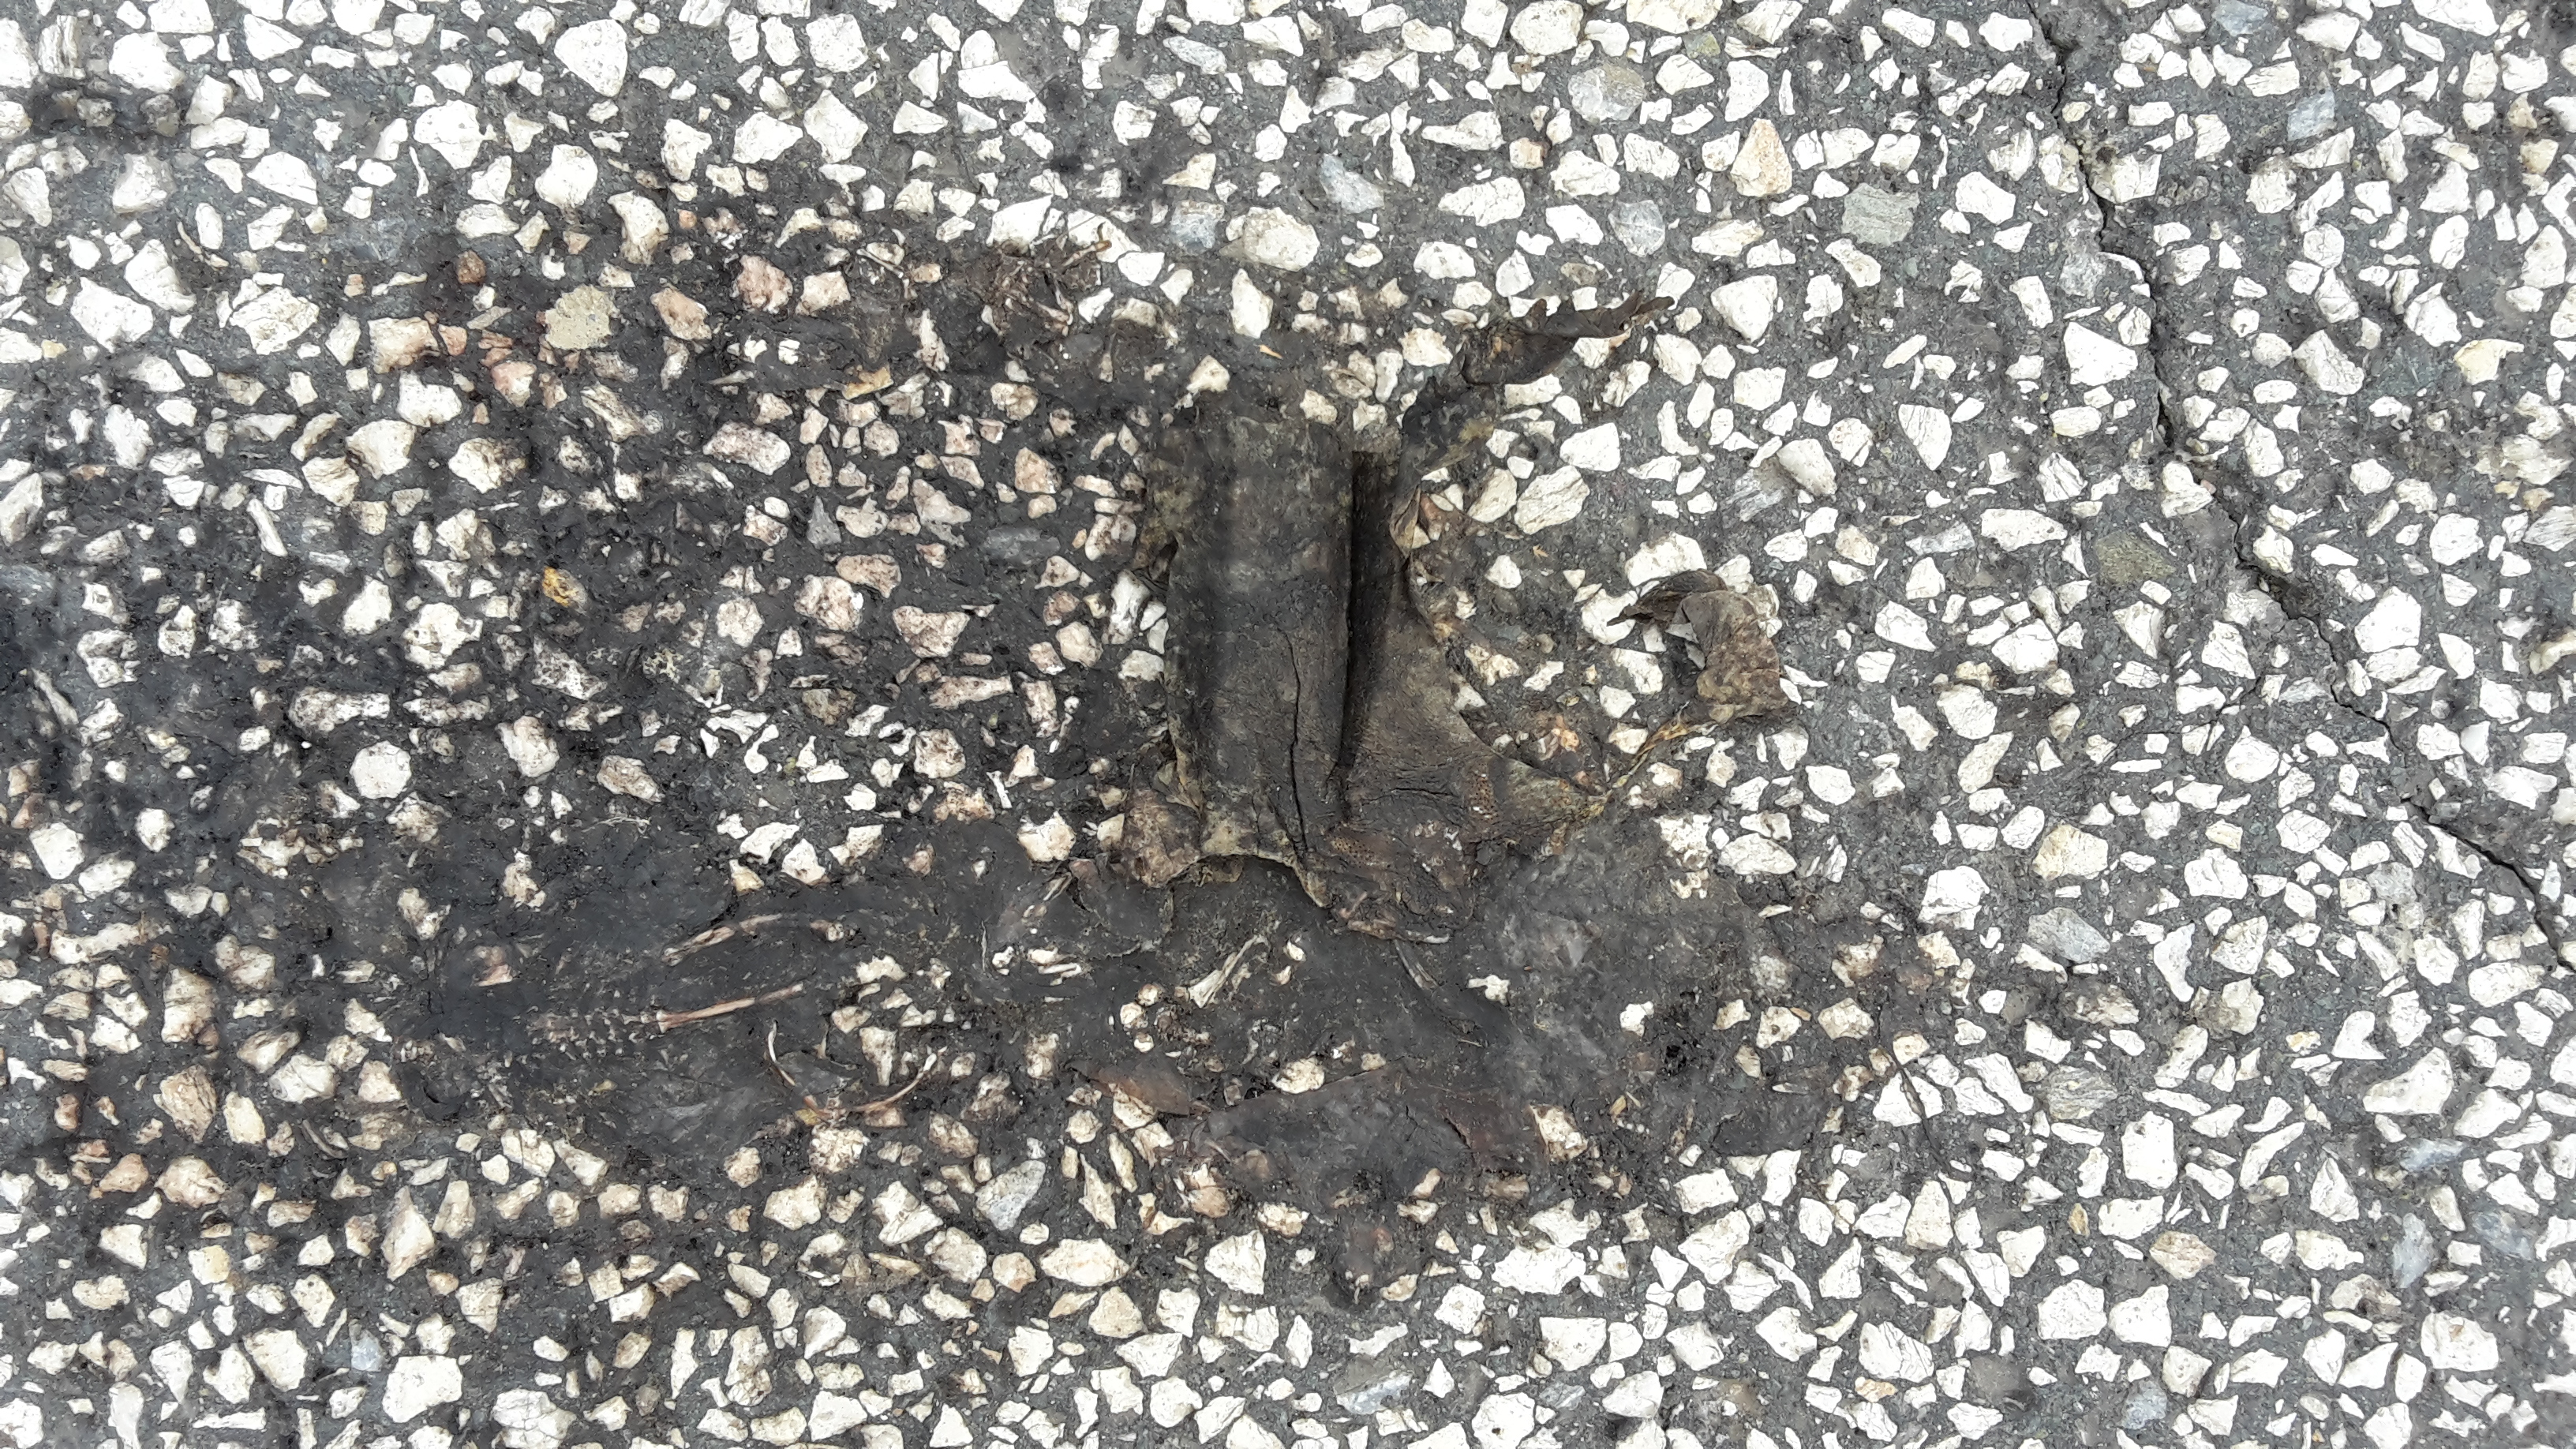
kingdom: Animalia
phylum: Chordata
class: Amphibia
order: Anura
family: Bufonidae
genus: Bufo
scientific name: Bufo bufo
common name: Common toad
